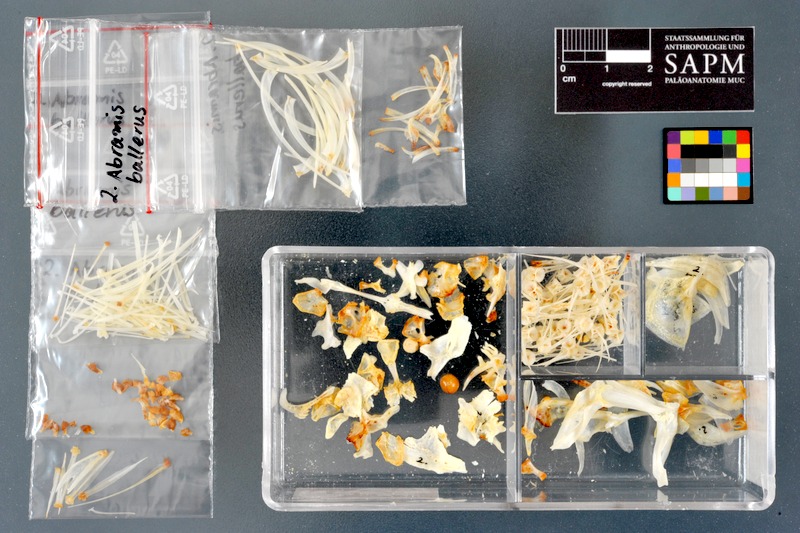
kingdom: Animalia
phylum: Chordata
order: Cypriniformes
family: Cyprinidae
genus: Ballerus
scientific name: Ballerus ballerus
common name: Blue bream
